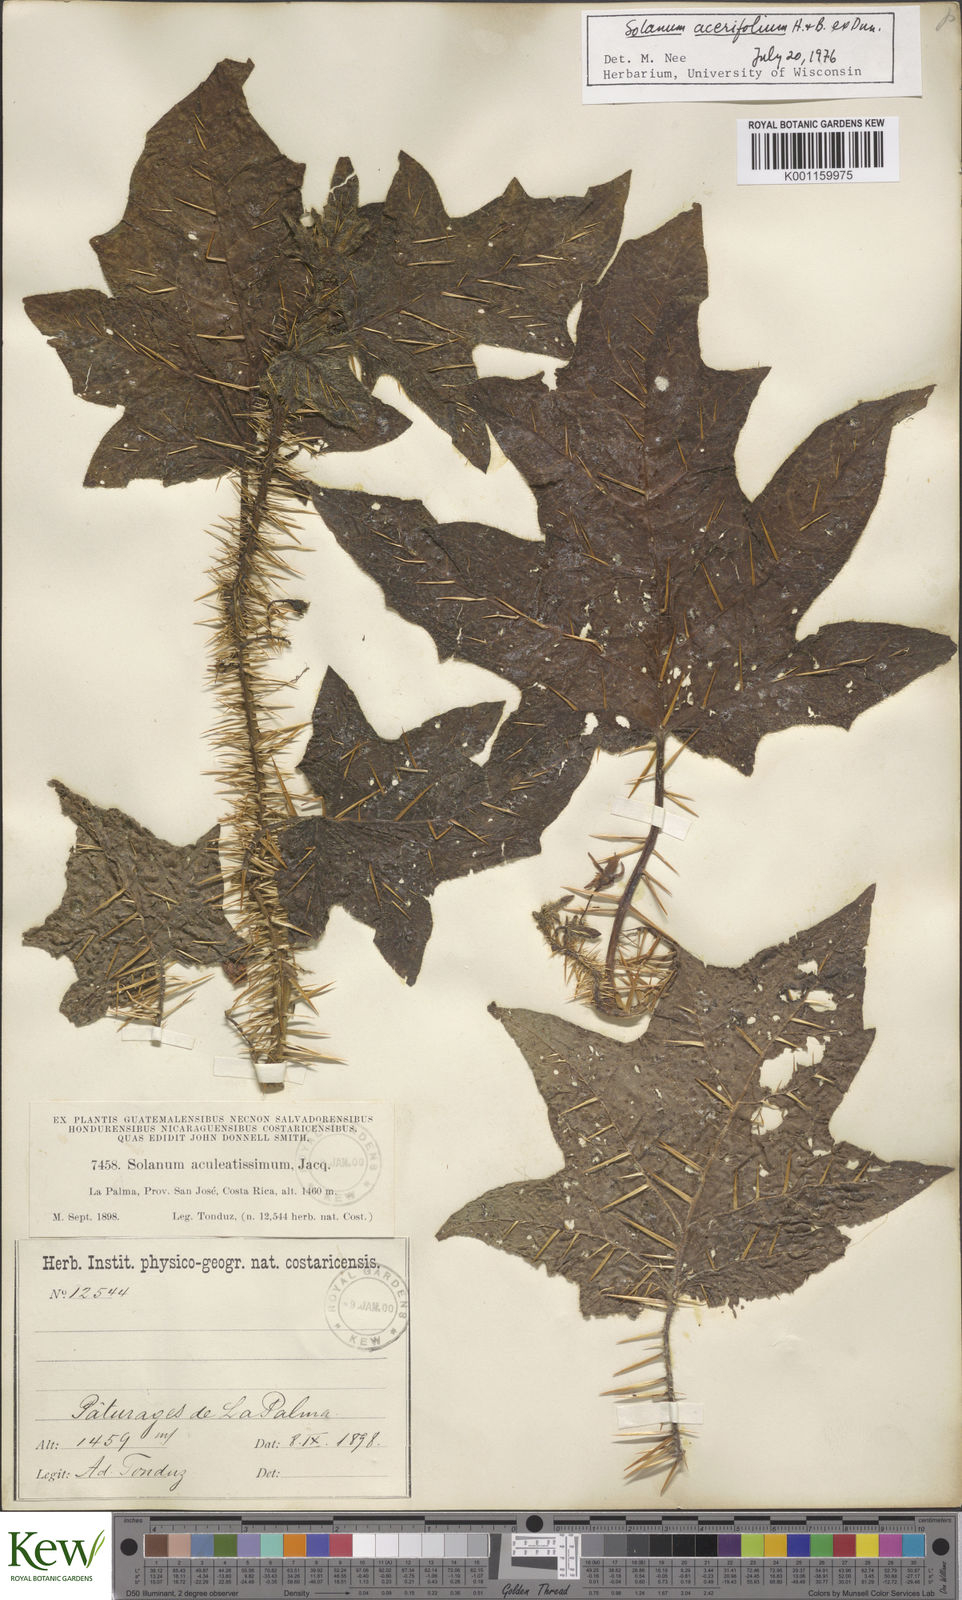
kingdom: Plantae
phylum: Tracheophyta
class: Magnoliopsida
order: Solanales
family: Solanaceae
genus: Solanum
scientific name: Solanum acerifolium
